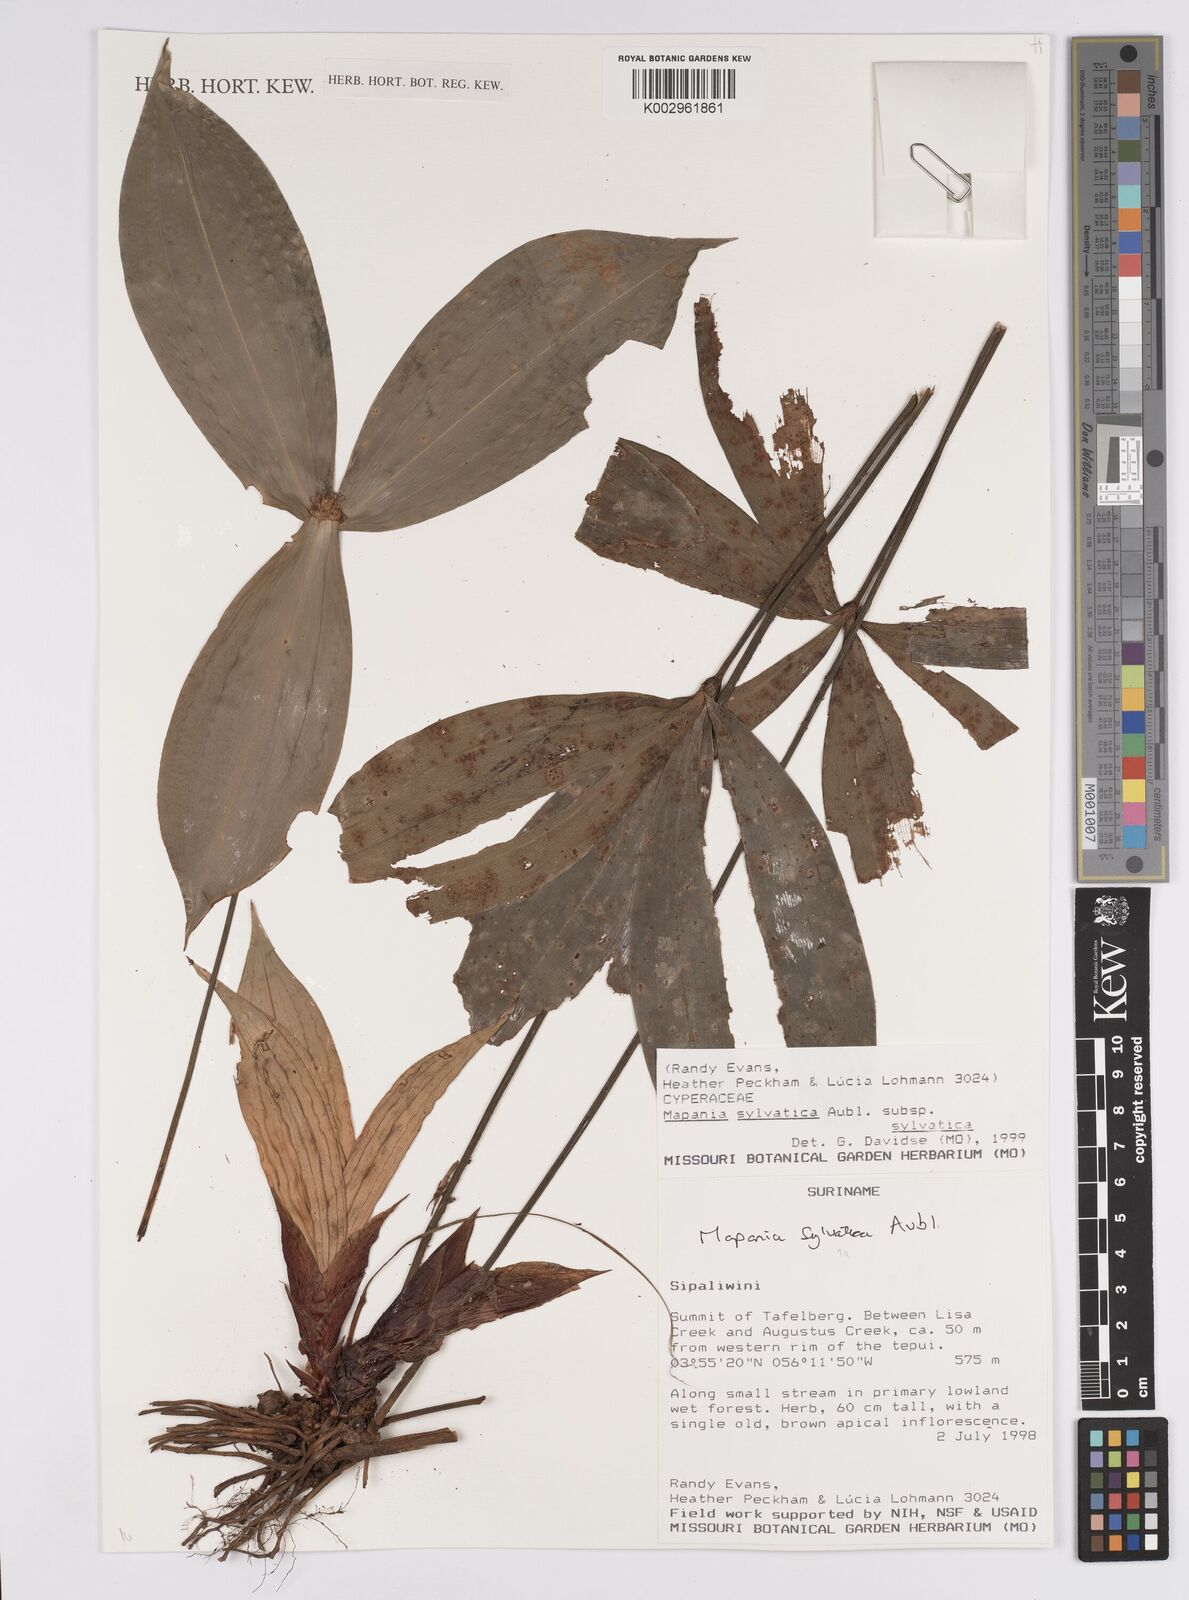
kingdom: Plantae
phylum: Tracheophyta
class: Liliopsida
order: Poales
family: Cyperaceae
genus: Mapania
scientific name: Mapania sylvatica
